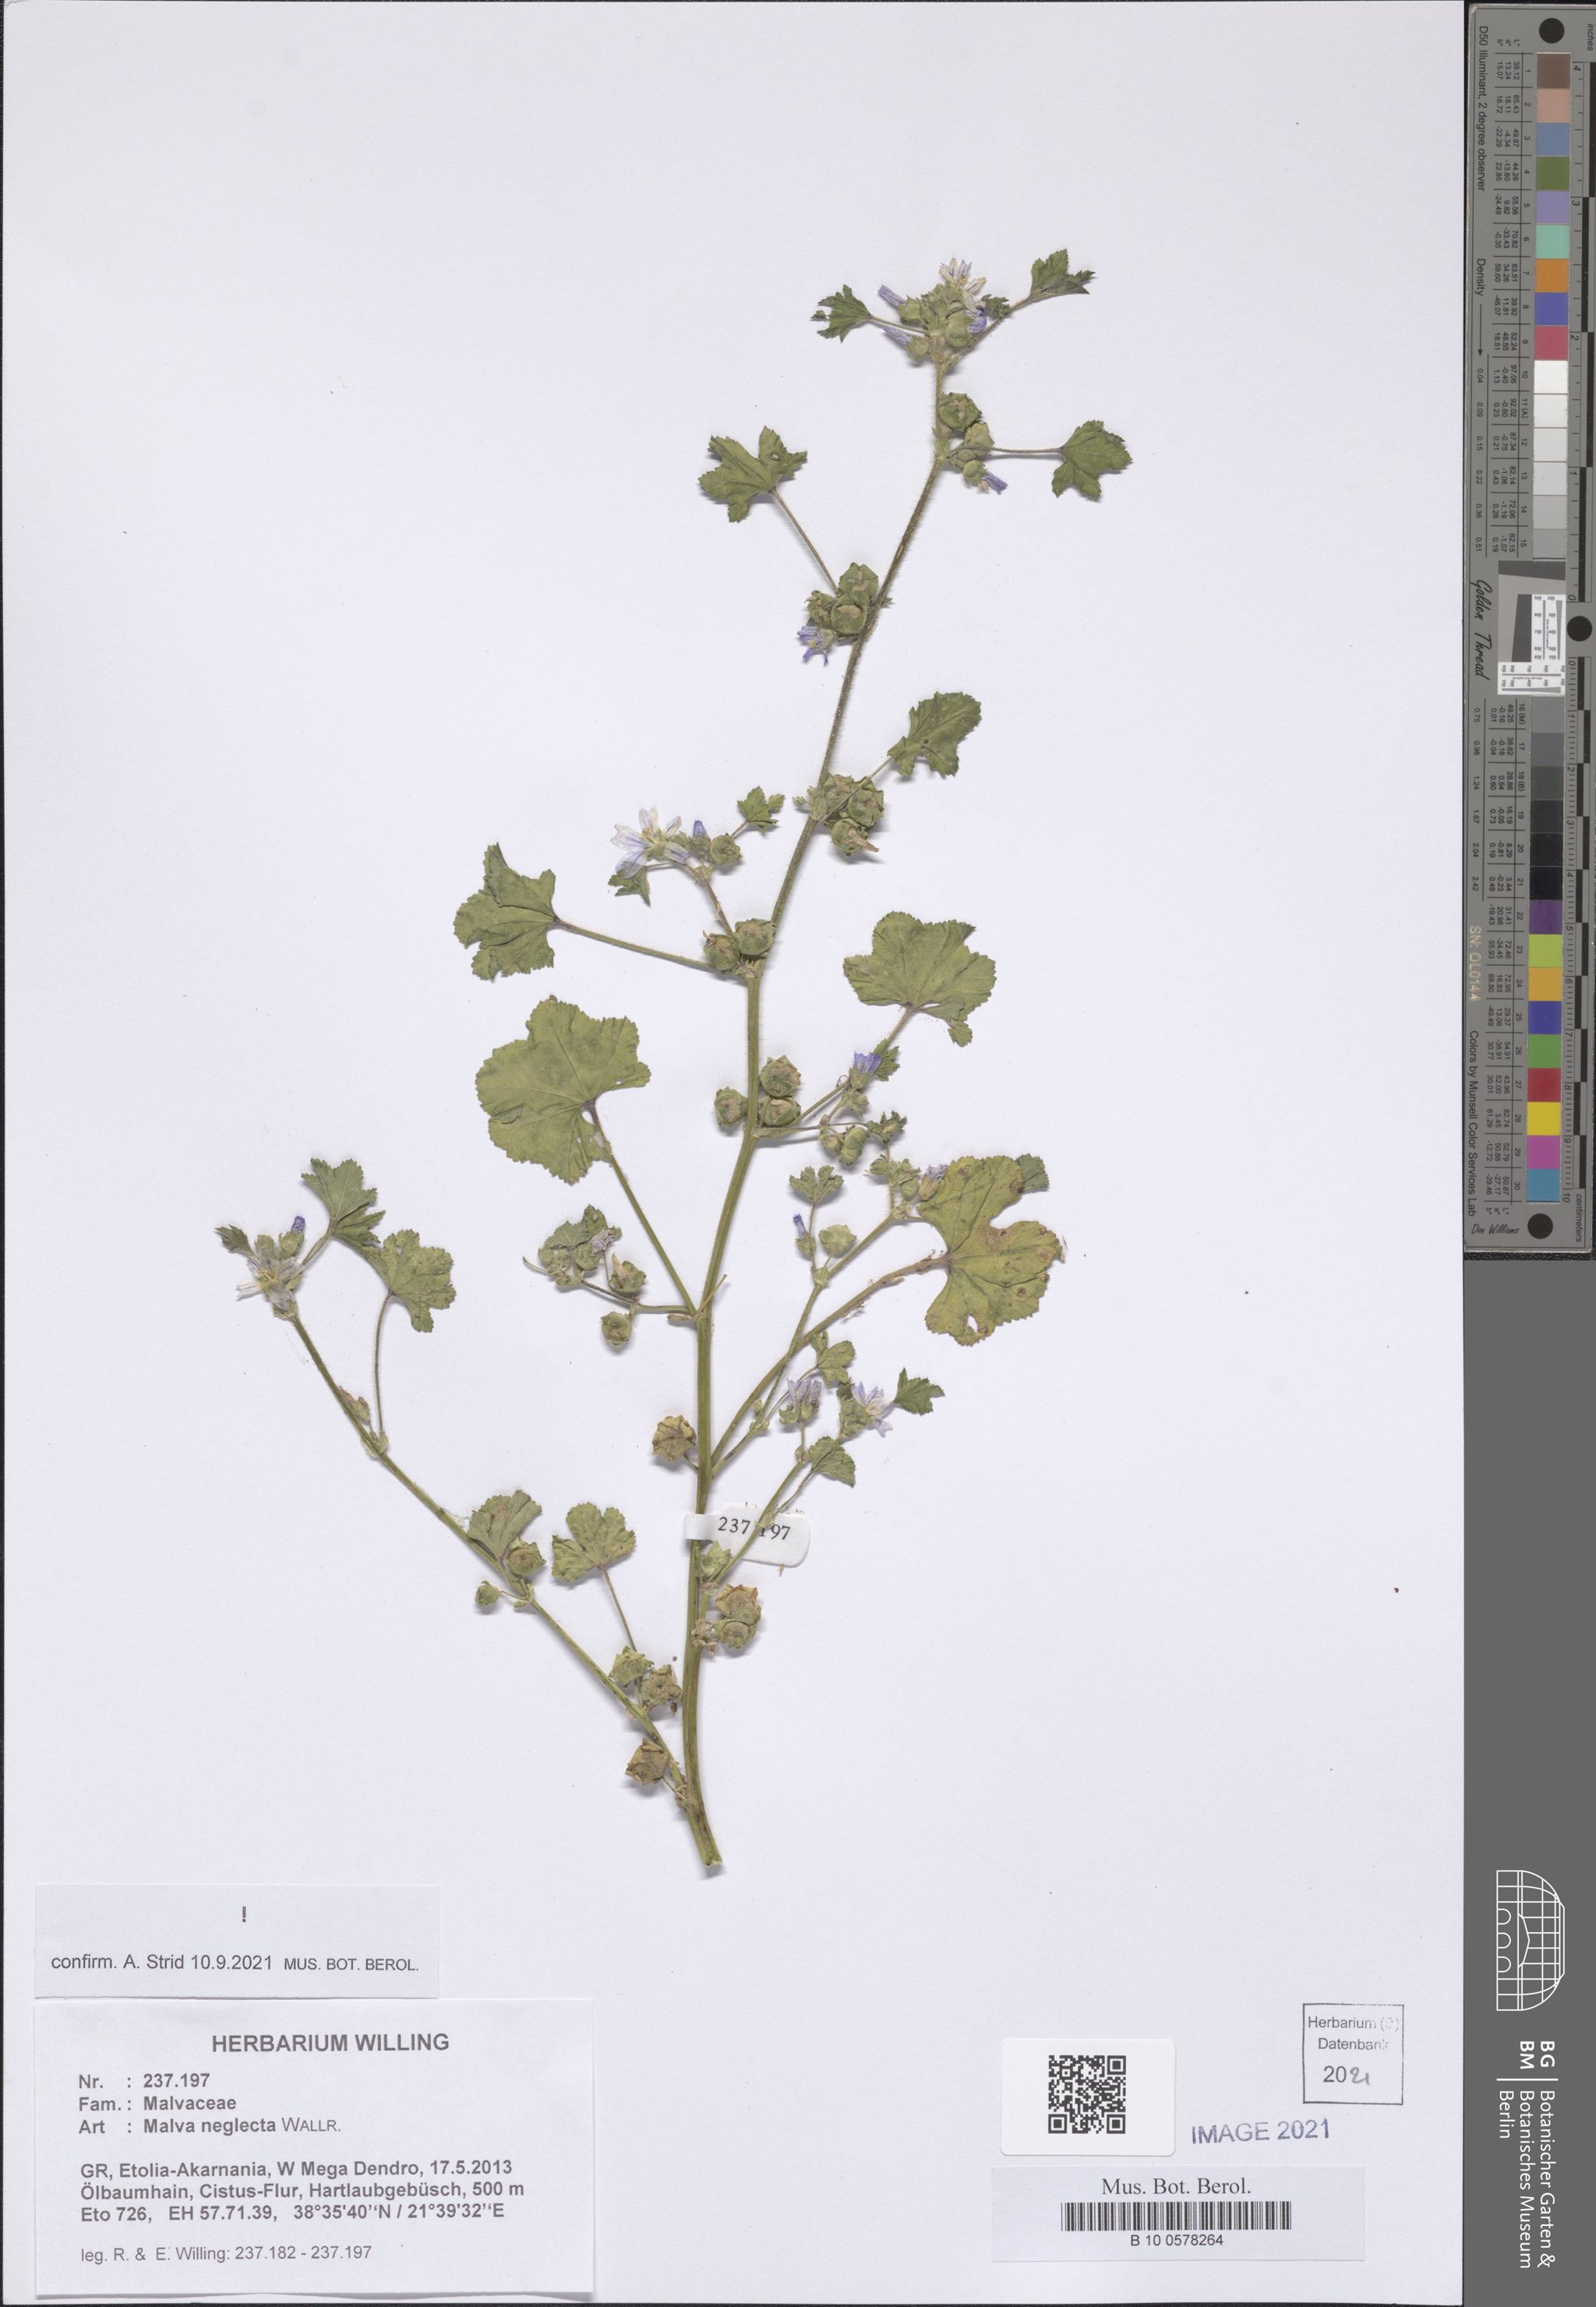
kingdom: Plantae
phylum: Tracheophyta
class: Magnoliopsida
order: Malvales
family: Malvaceae
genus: Malva
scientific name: Malva neglecta
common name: Common mallow
